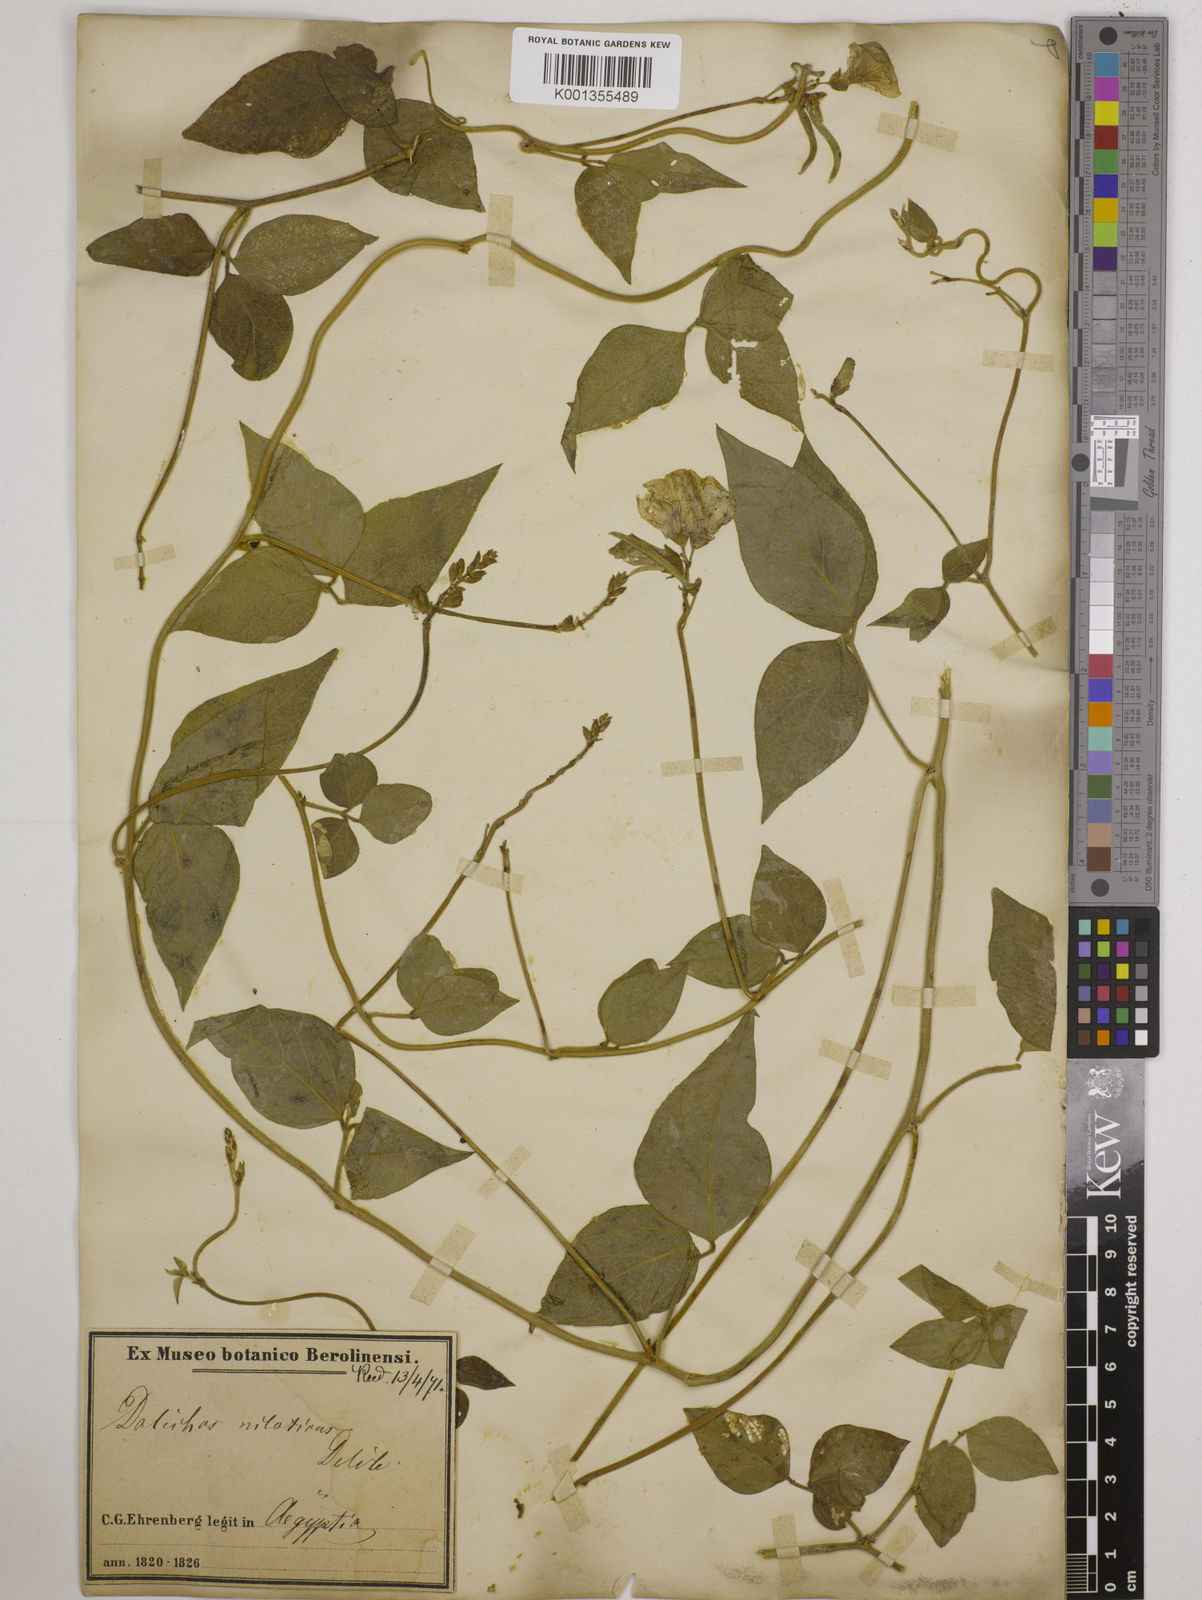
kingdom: Plantae
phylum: Tracheophyta
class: Magnoliopsida
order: Fabales
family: Fabaceae
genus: Vigna
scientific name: Vigna luteola
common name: Hairypod cowpea
